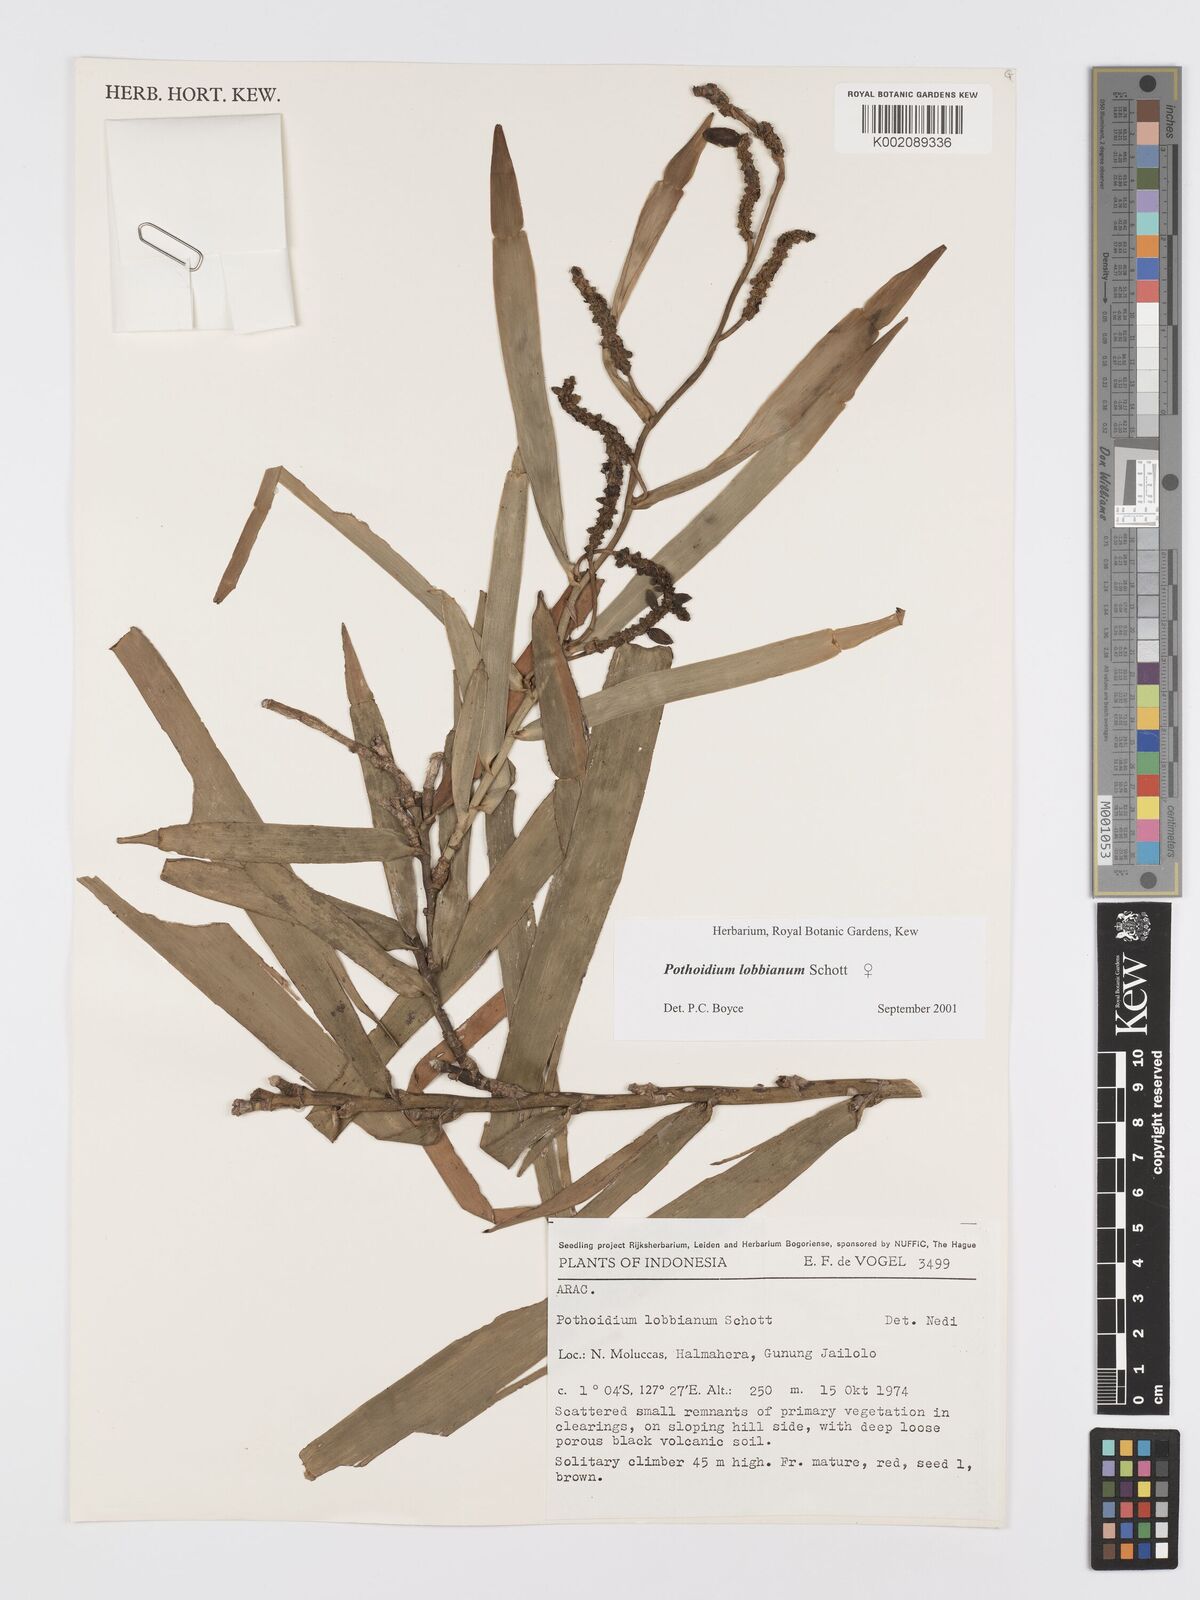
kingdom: Plantae
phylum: Tracheophyta
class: Liliopsida
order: Alismatales
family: Araceae
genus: Pothoidium
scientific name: Pothoidium lobbianum
